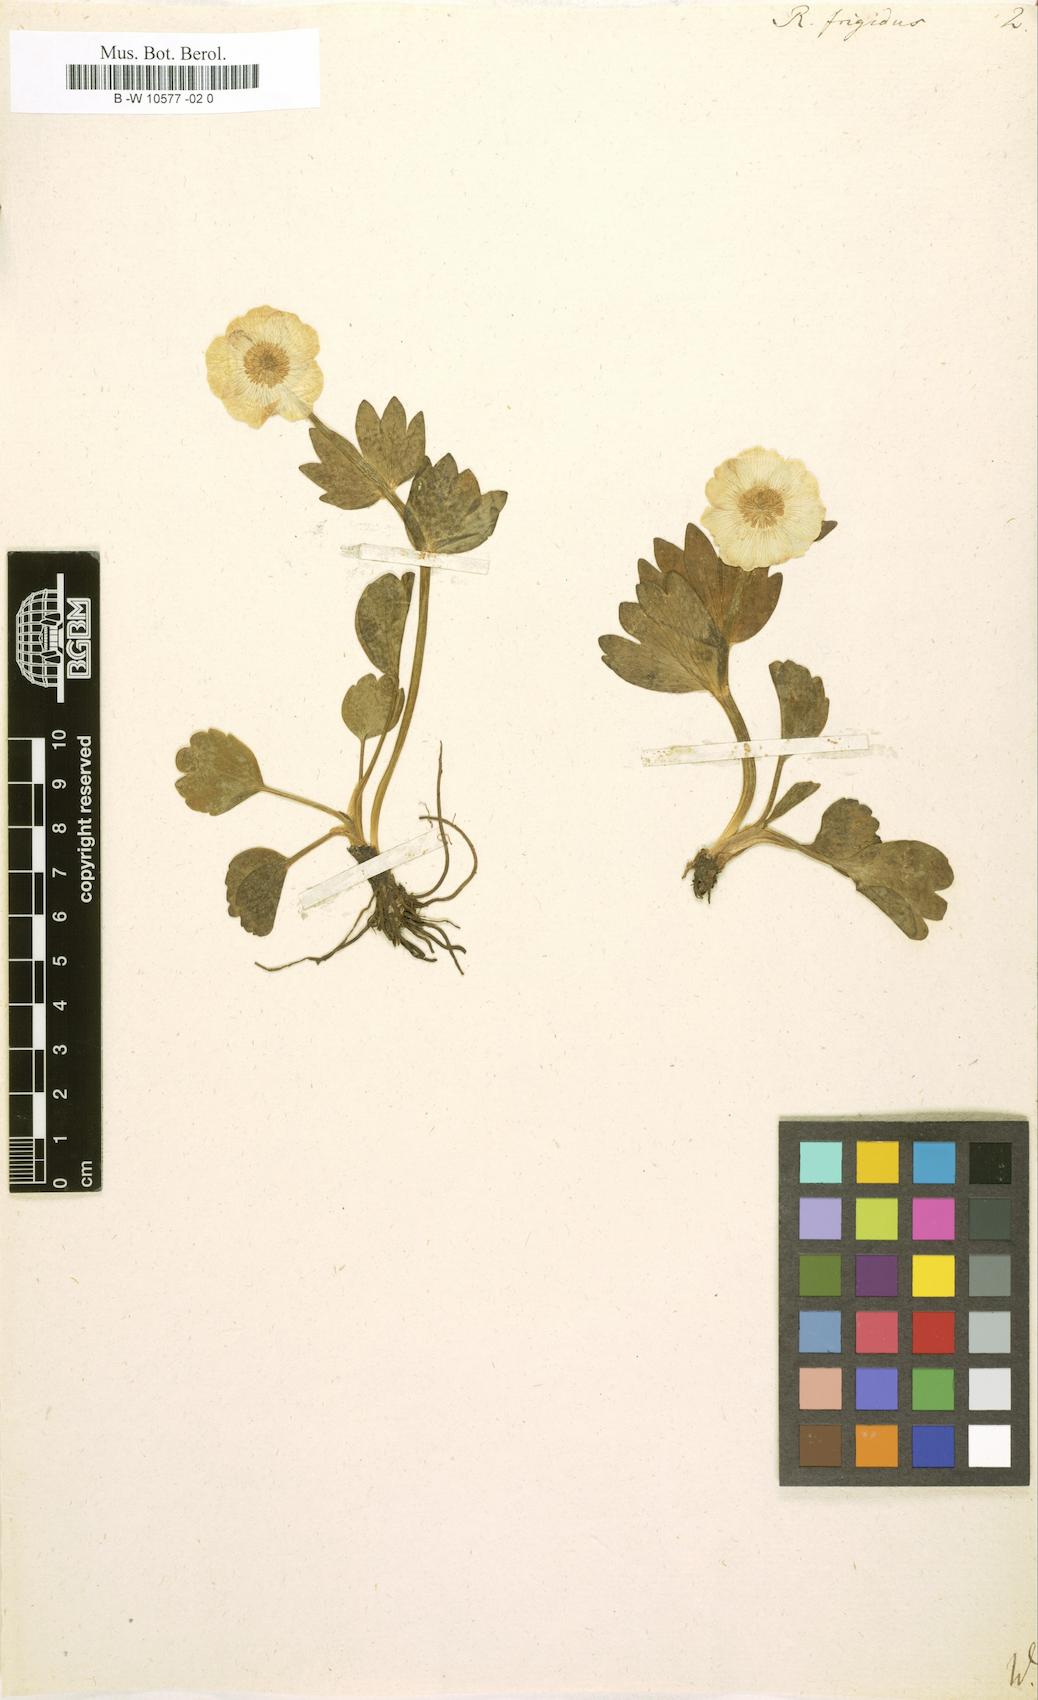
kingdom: Plantae
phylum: Tracheophyta
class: Magnoliopsida
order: Ranunculales
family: Ranunculaceae
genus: Ranunculus
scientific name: Ranunculus
